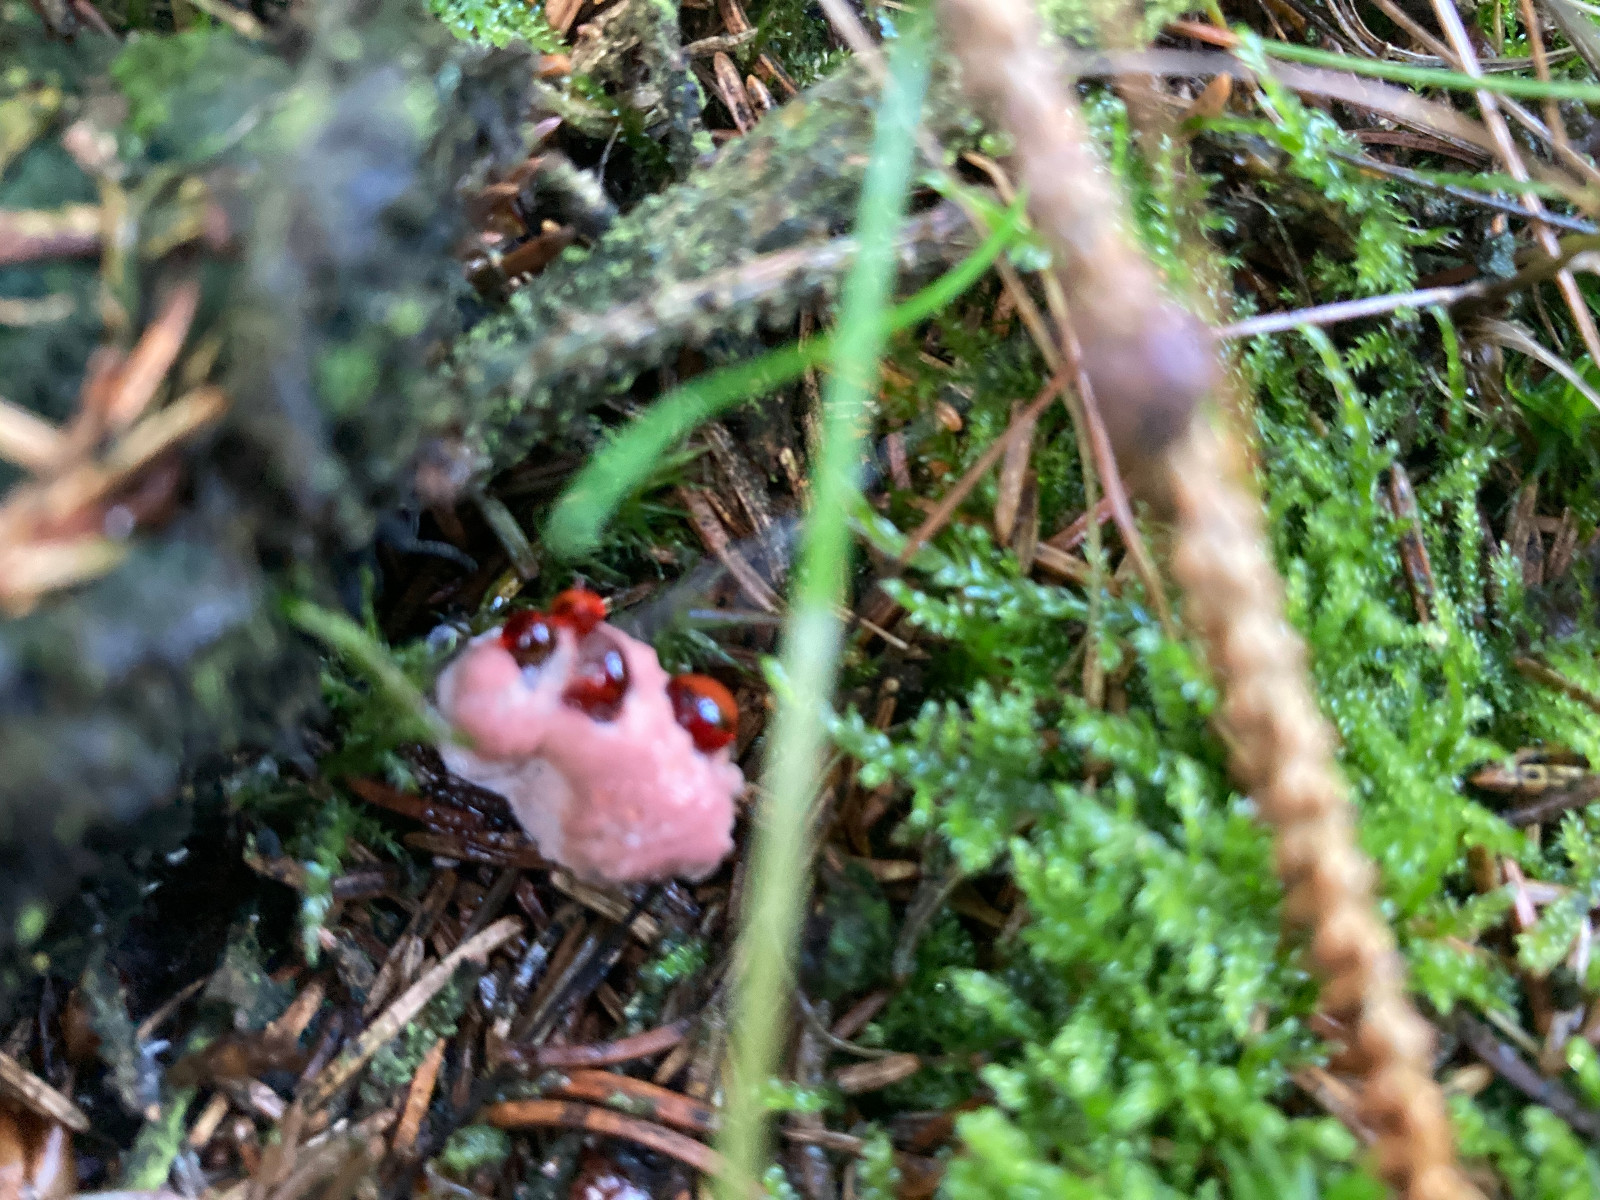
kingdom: Fungi
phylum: Basidiomycota
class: Agaricomycetes
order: Thelephorales
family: Bankeraceae
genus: Hydnellum
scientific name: Hydnellum ferrugineum
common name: rust-korkpigsvamp
